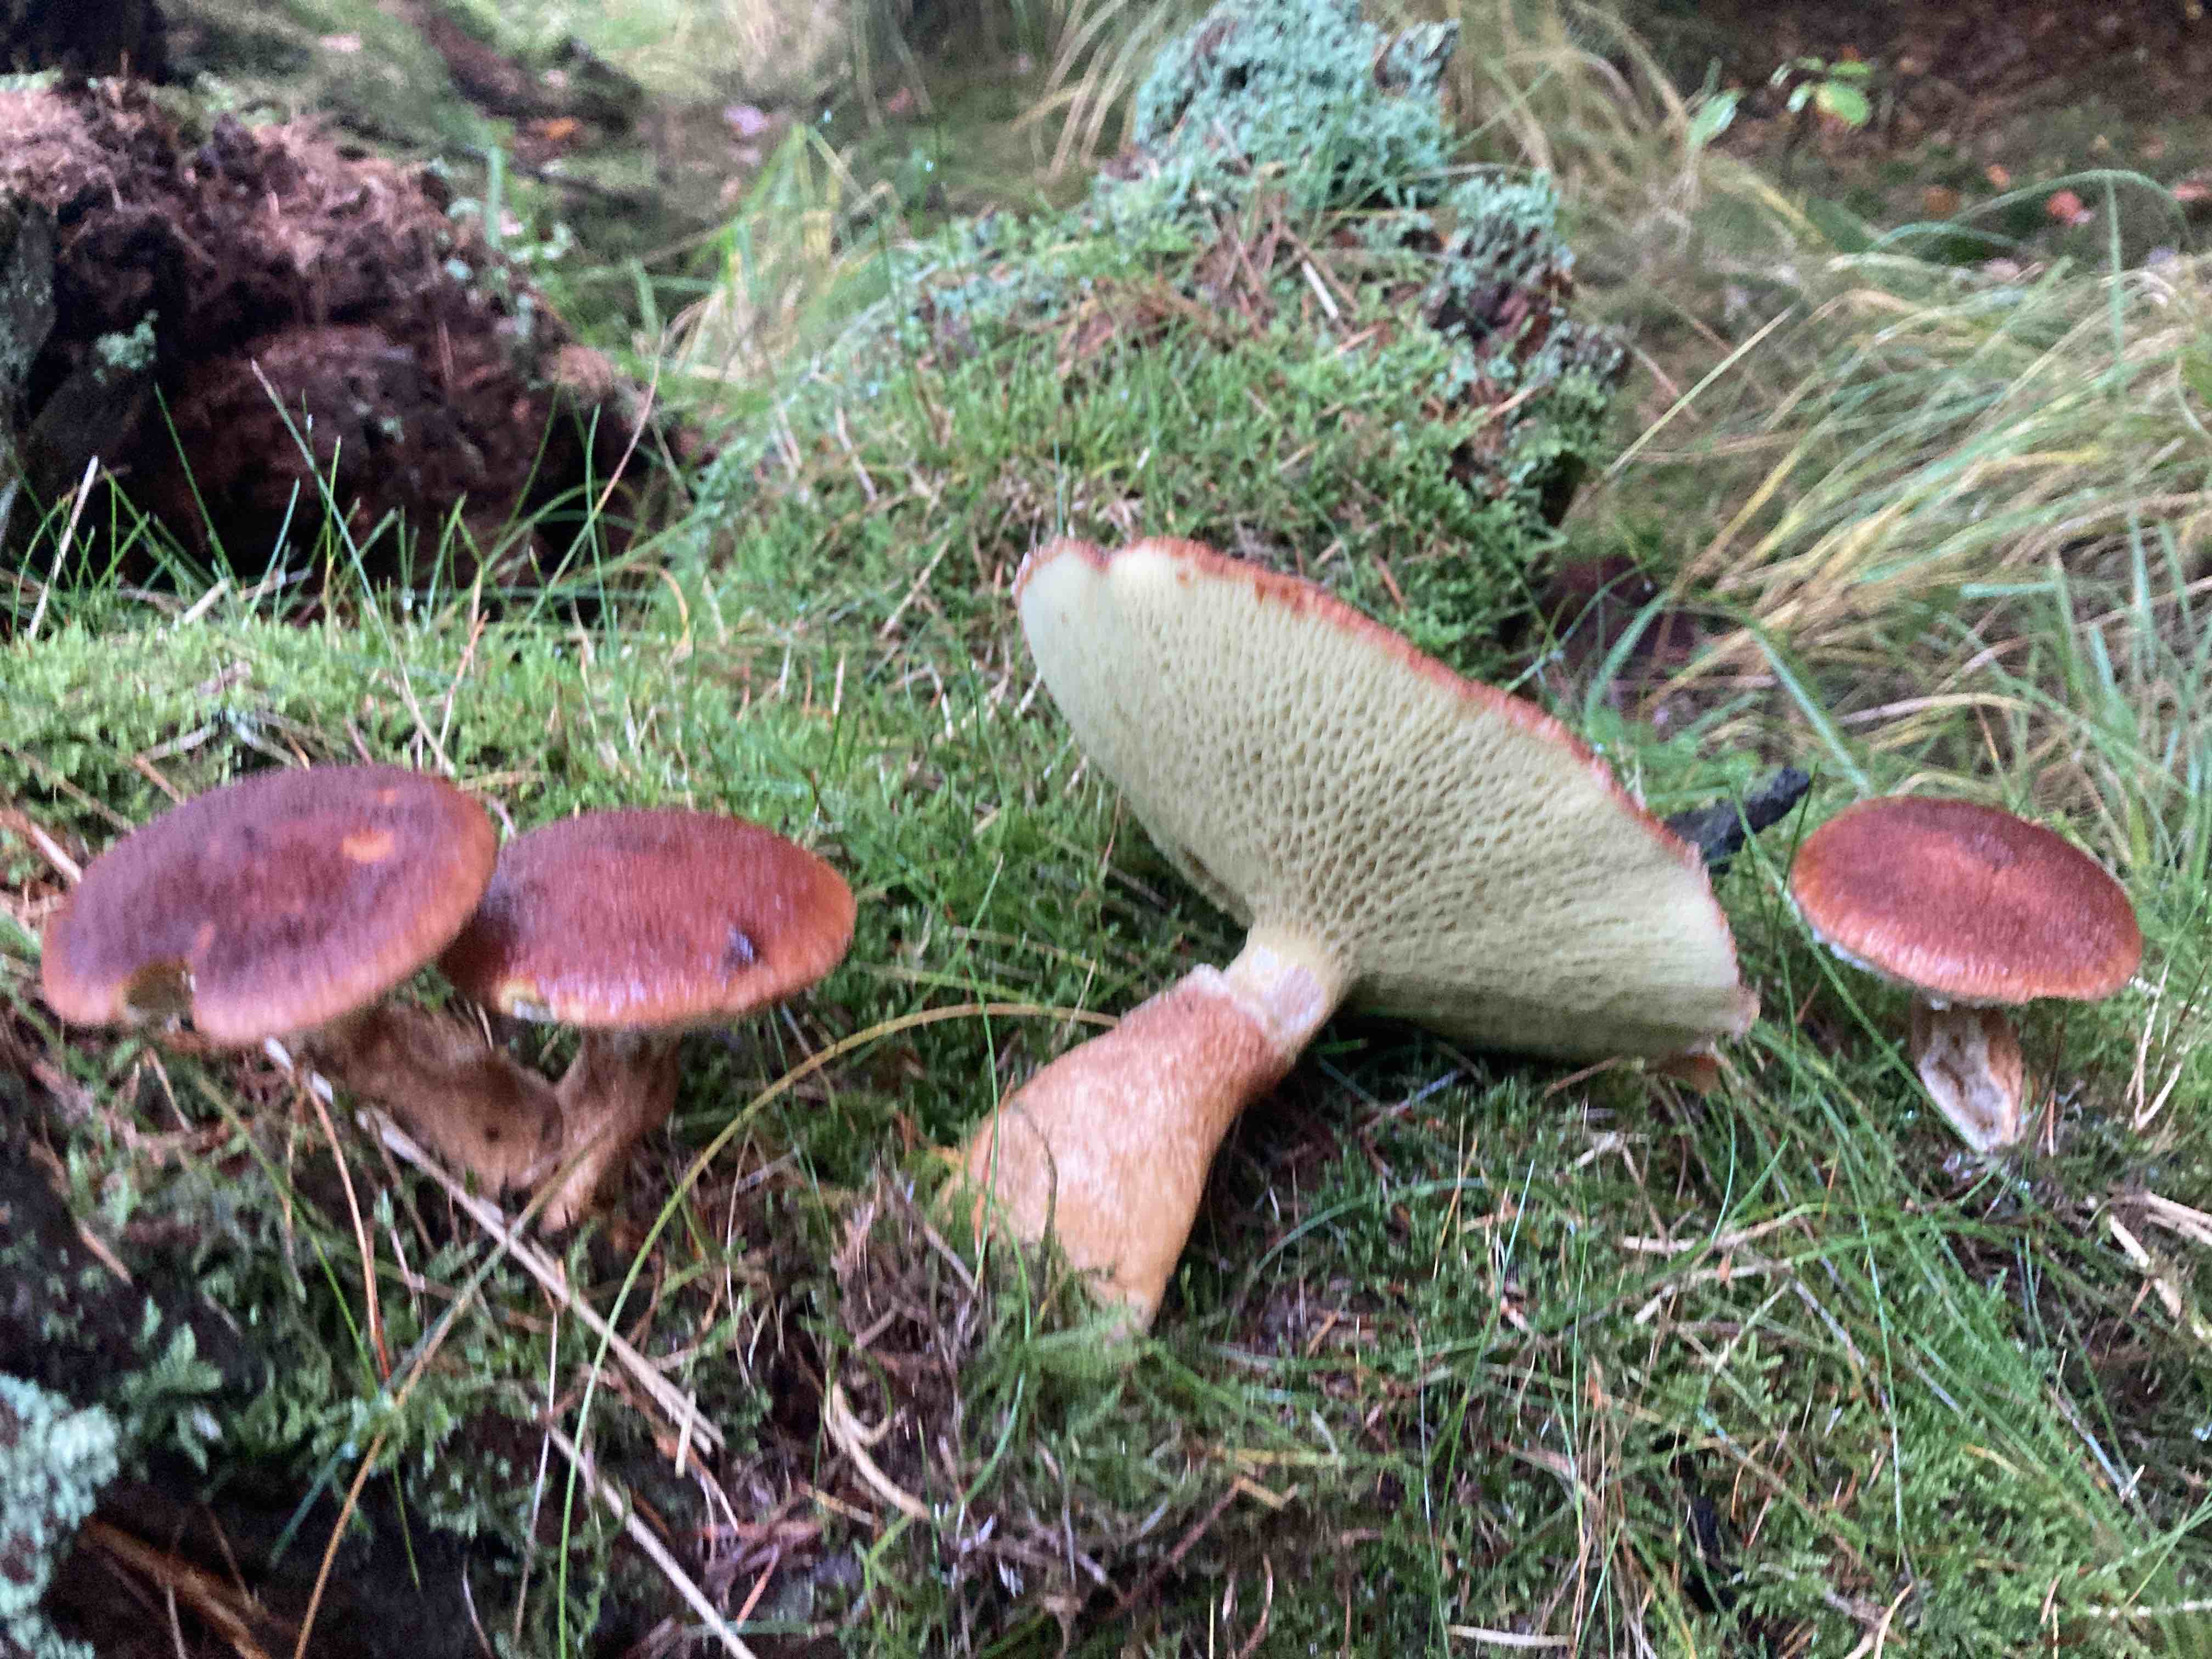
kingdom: Fungi
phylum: Basidiomycota
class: Agaricomycetes
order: Boletales
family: Suillaceae
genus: Suillus
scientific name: Suillus cavipes
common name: hulstokket slimrørhat
